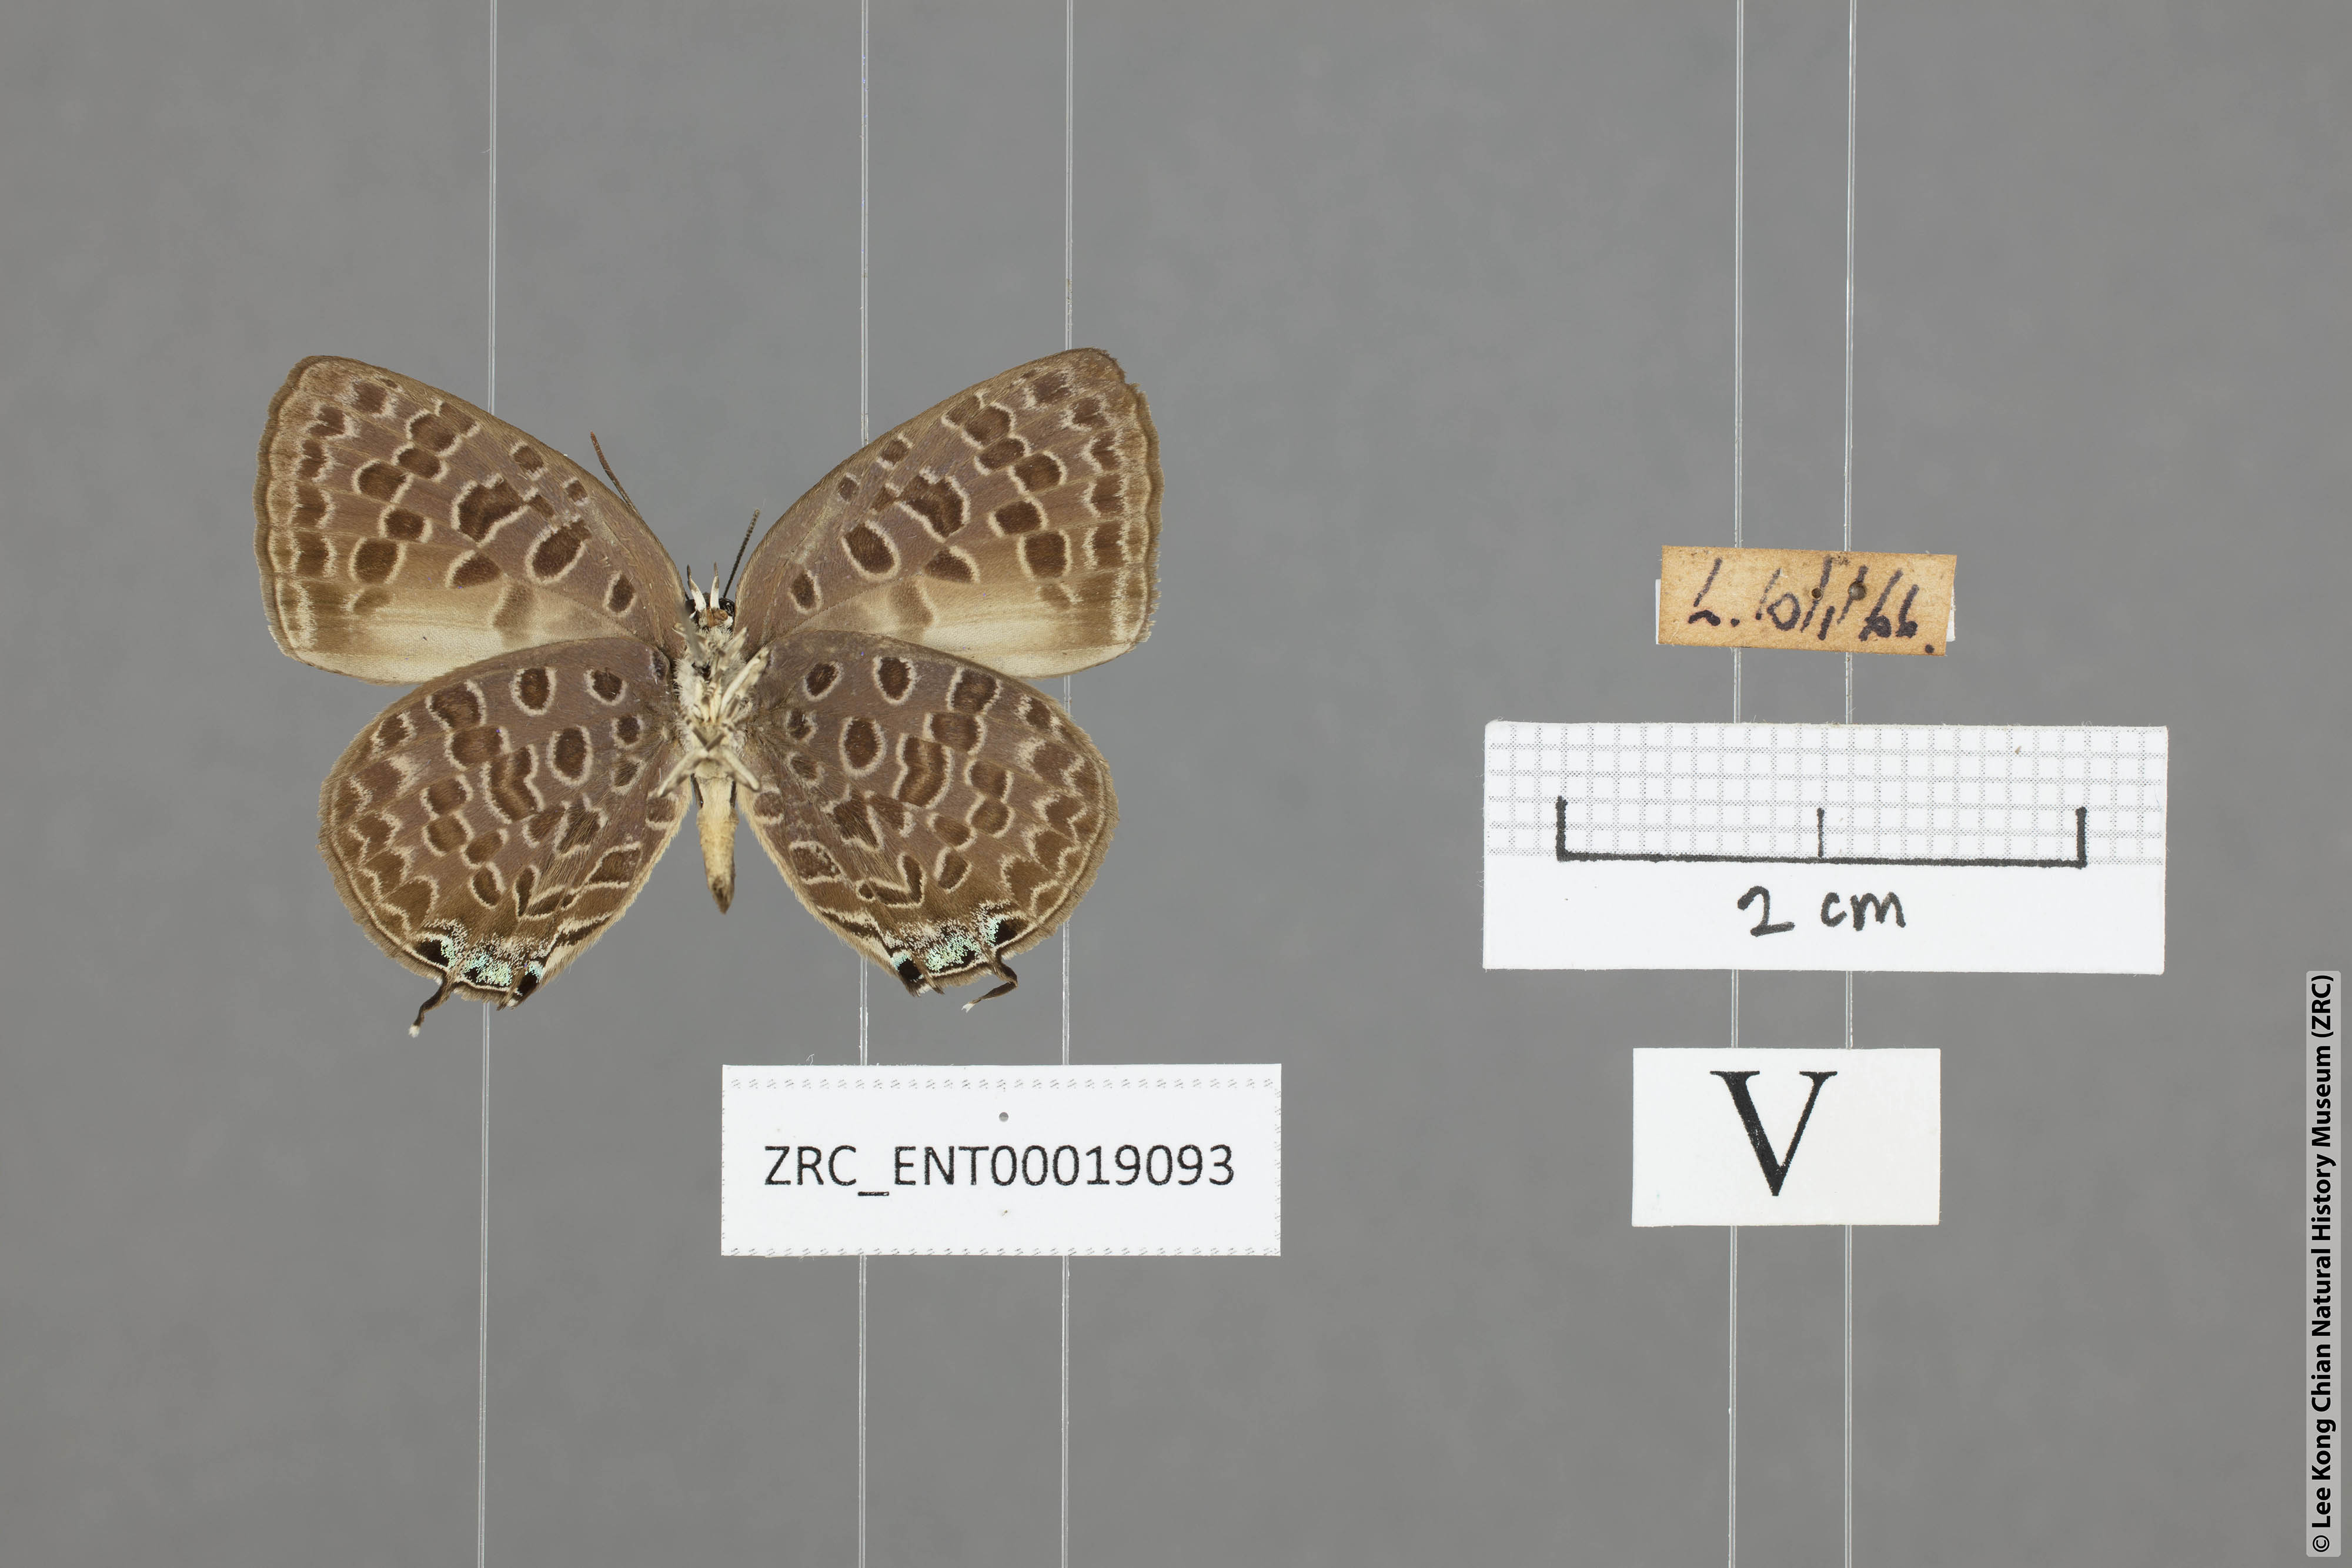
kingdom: Animalia
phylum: Arthropoda
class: Insecta
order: Lepidoptera
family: Lycaenidae
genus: Arhopala
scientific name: Arhopala alitaeus
